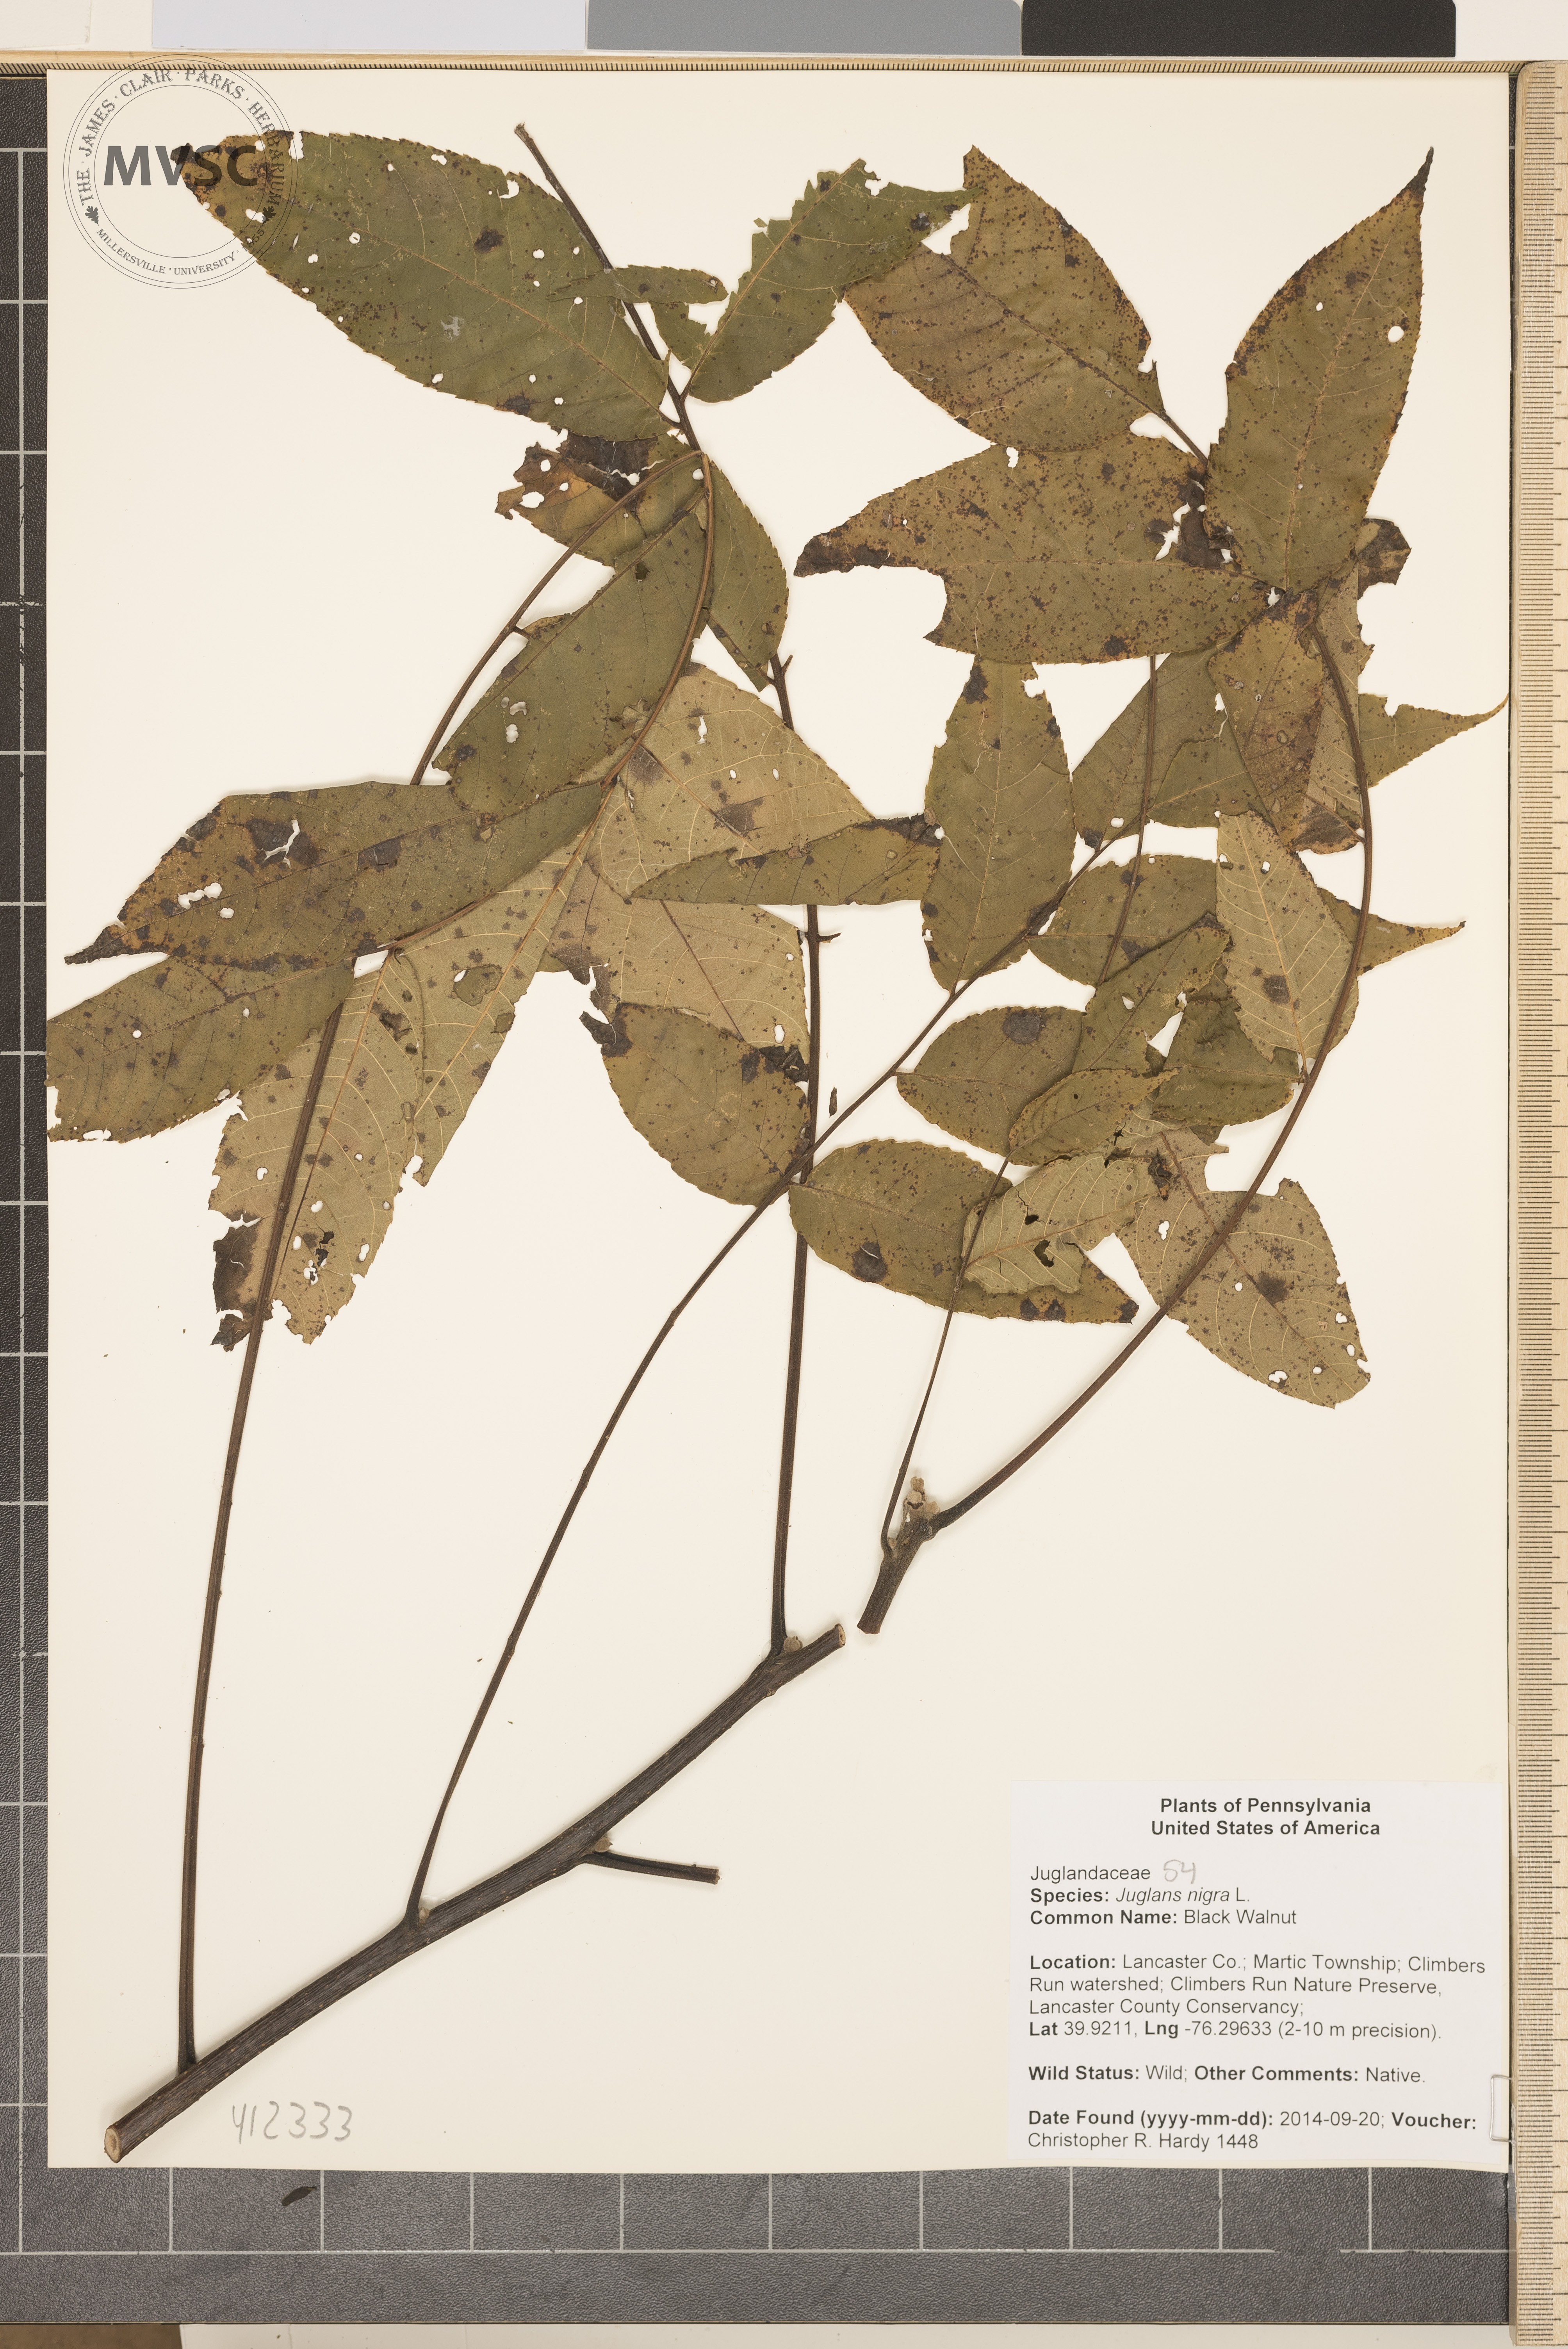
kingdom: Plantae
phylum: Tracheophyta
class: Magnoliopsida
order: Fagales
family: Juglandaceae
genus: Juglans
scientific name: Juglans nigra
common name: black walnut
